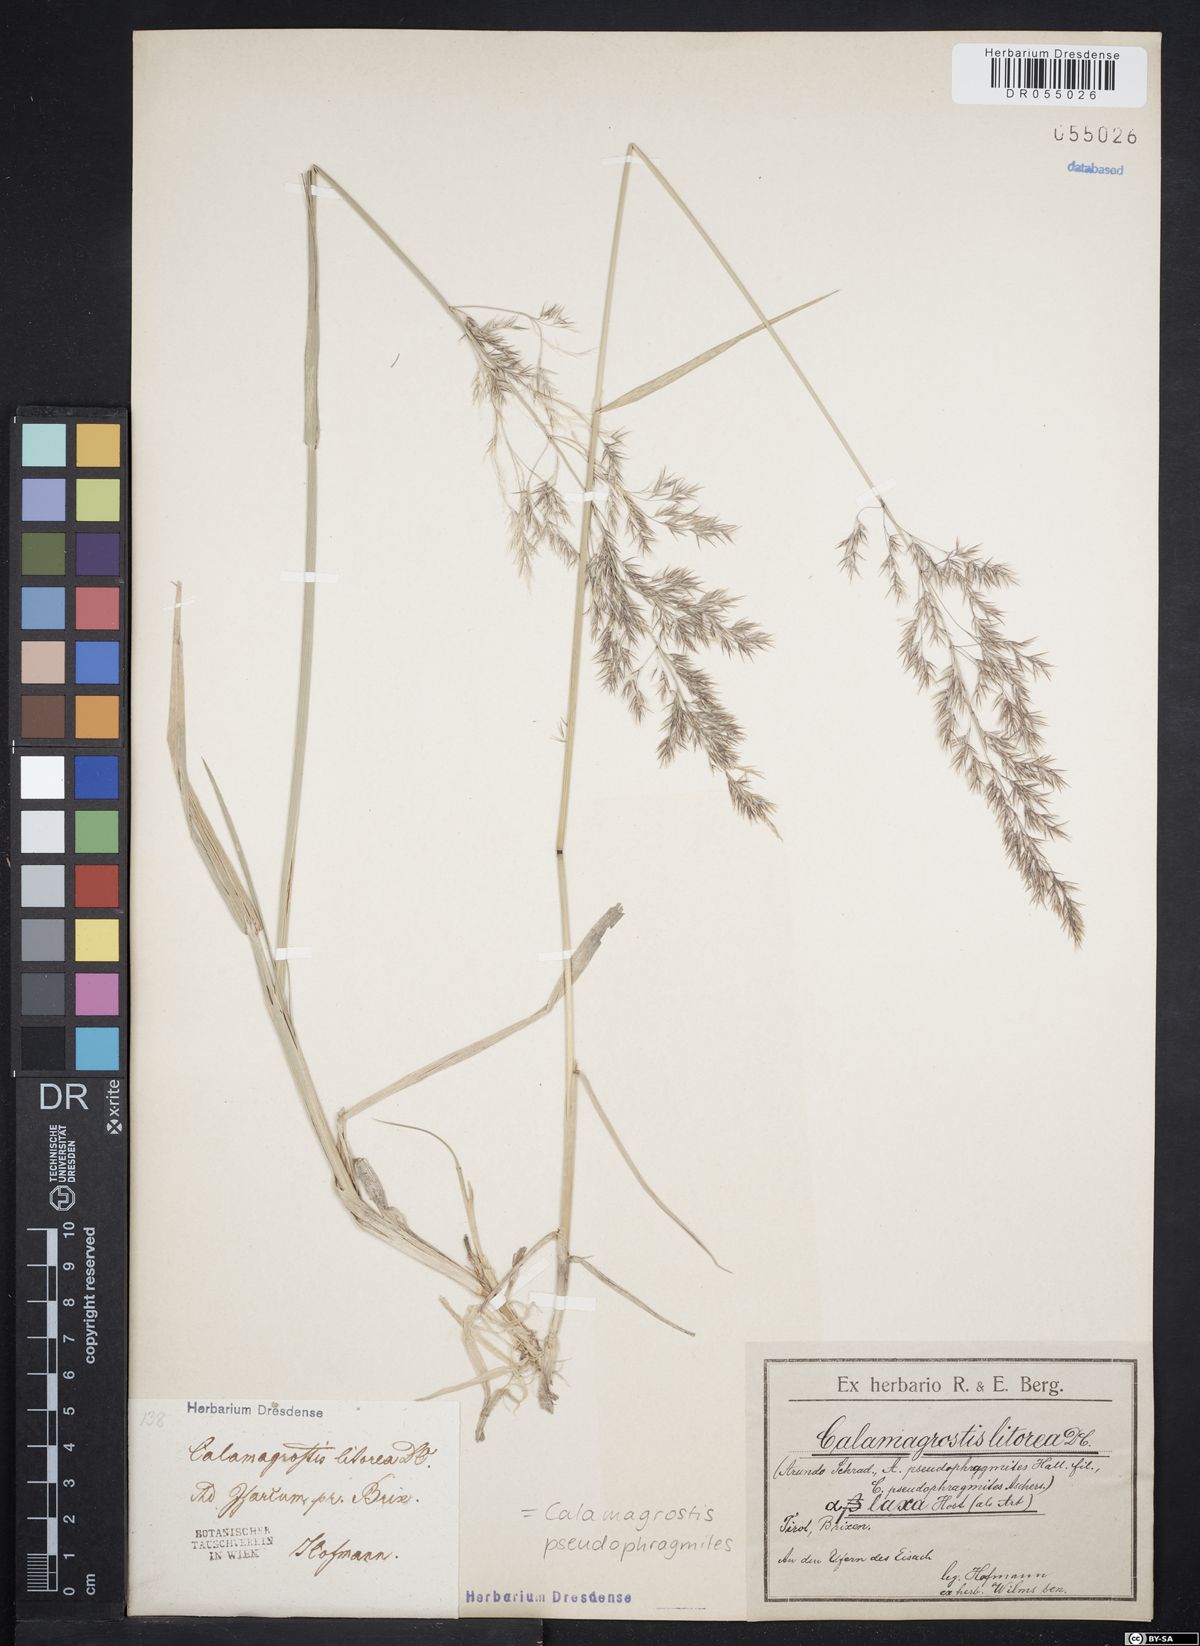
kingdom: Plantae
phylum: Tracheophyta
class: Liliopsida
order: Poales
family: Poaceae
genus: Calamagrostis
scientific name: Calamagrostis pseudophragmites
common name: Coastal small-reed
